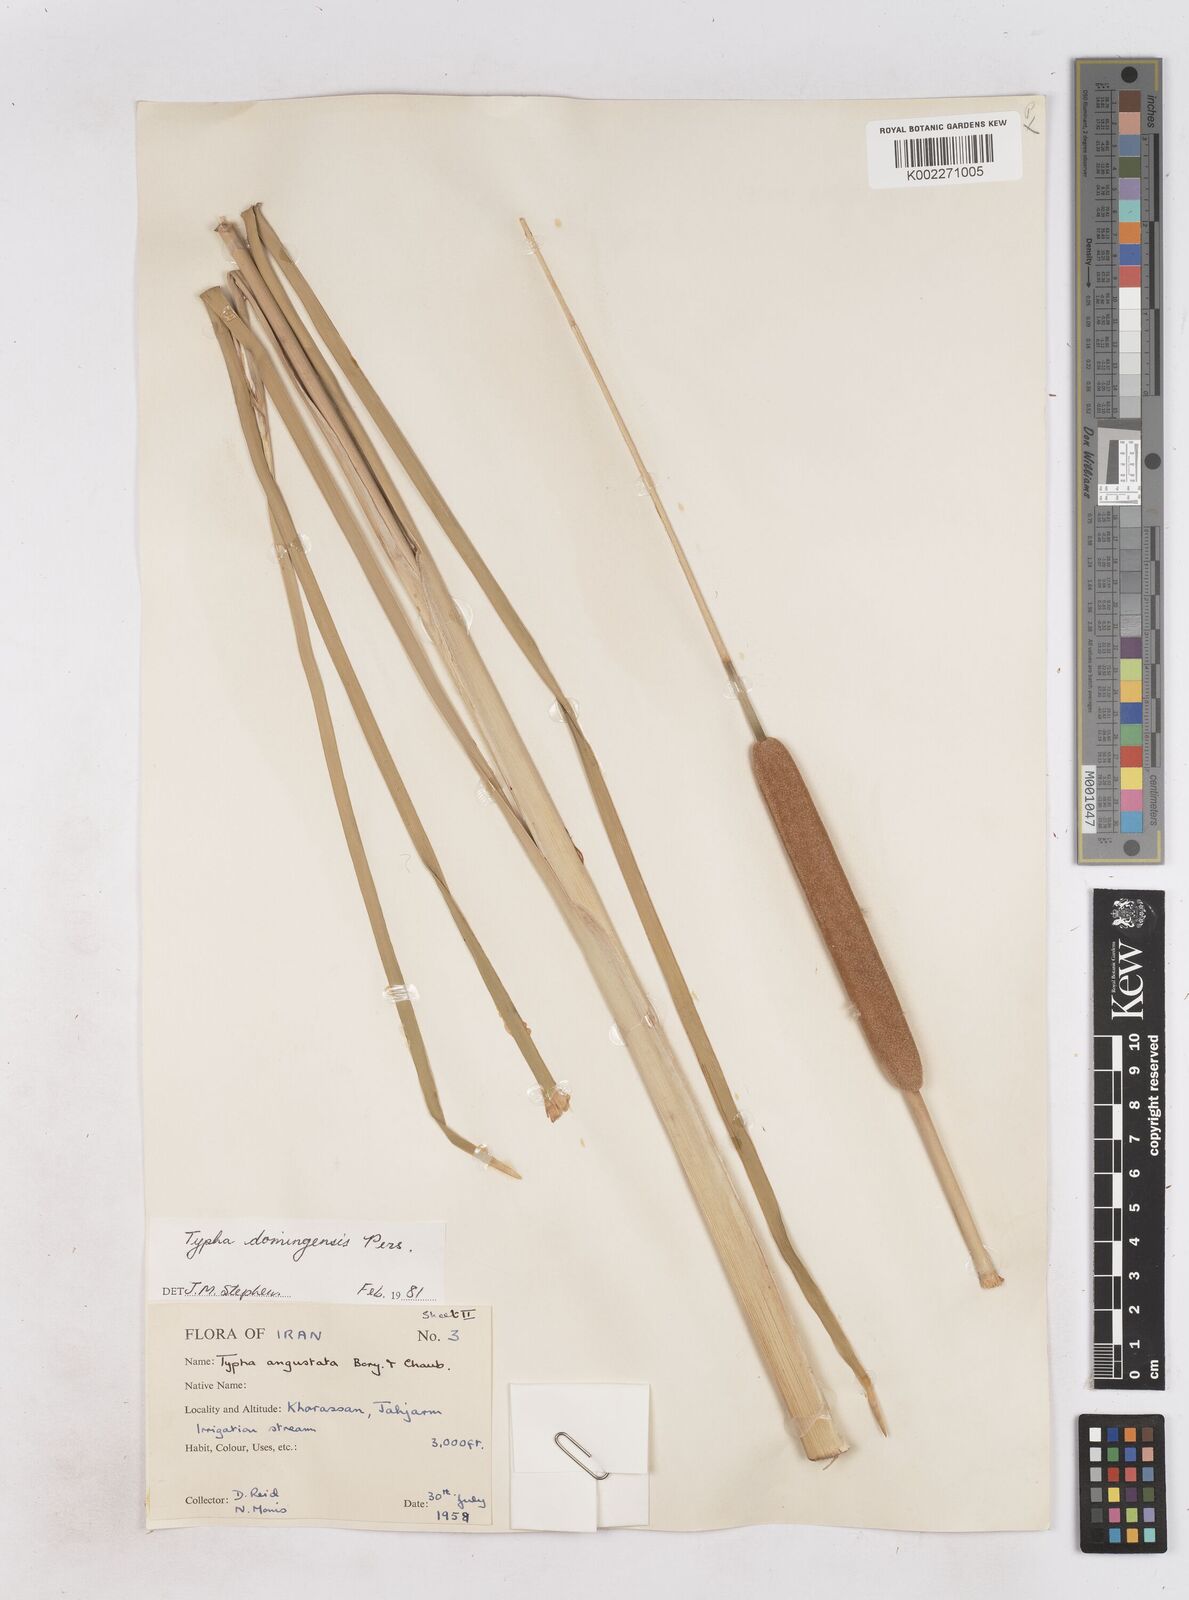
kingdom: Plantae
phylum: Tracheophyta
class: Liliopsida
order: Poales
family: Typhaceae
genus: Typha
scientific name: Typha domingensis
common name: Southern cattail
